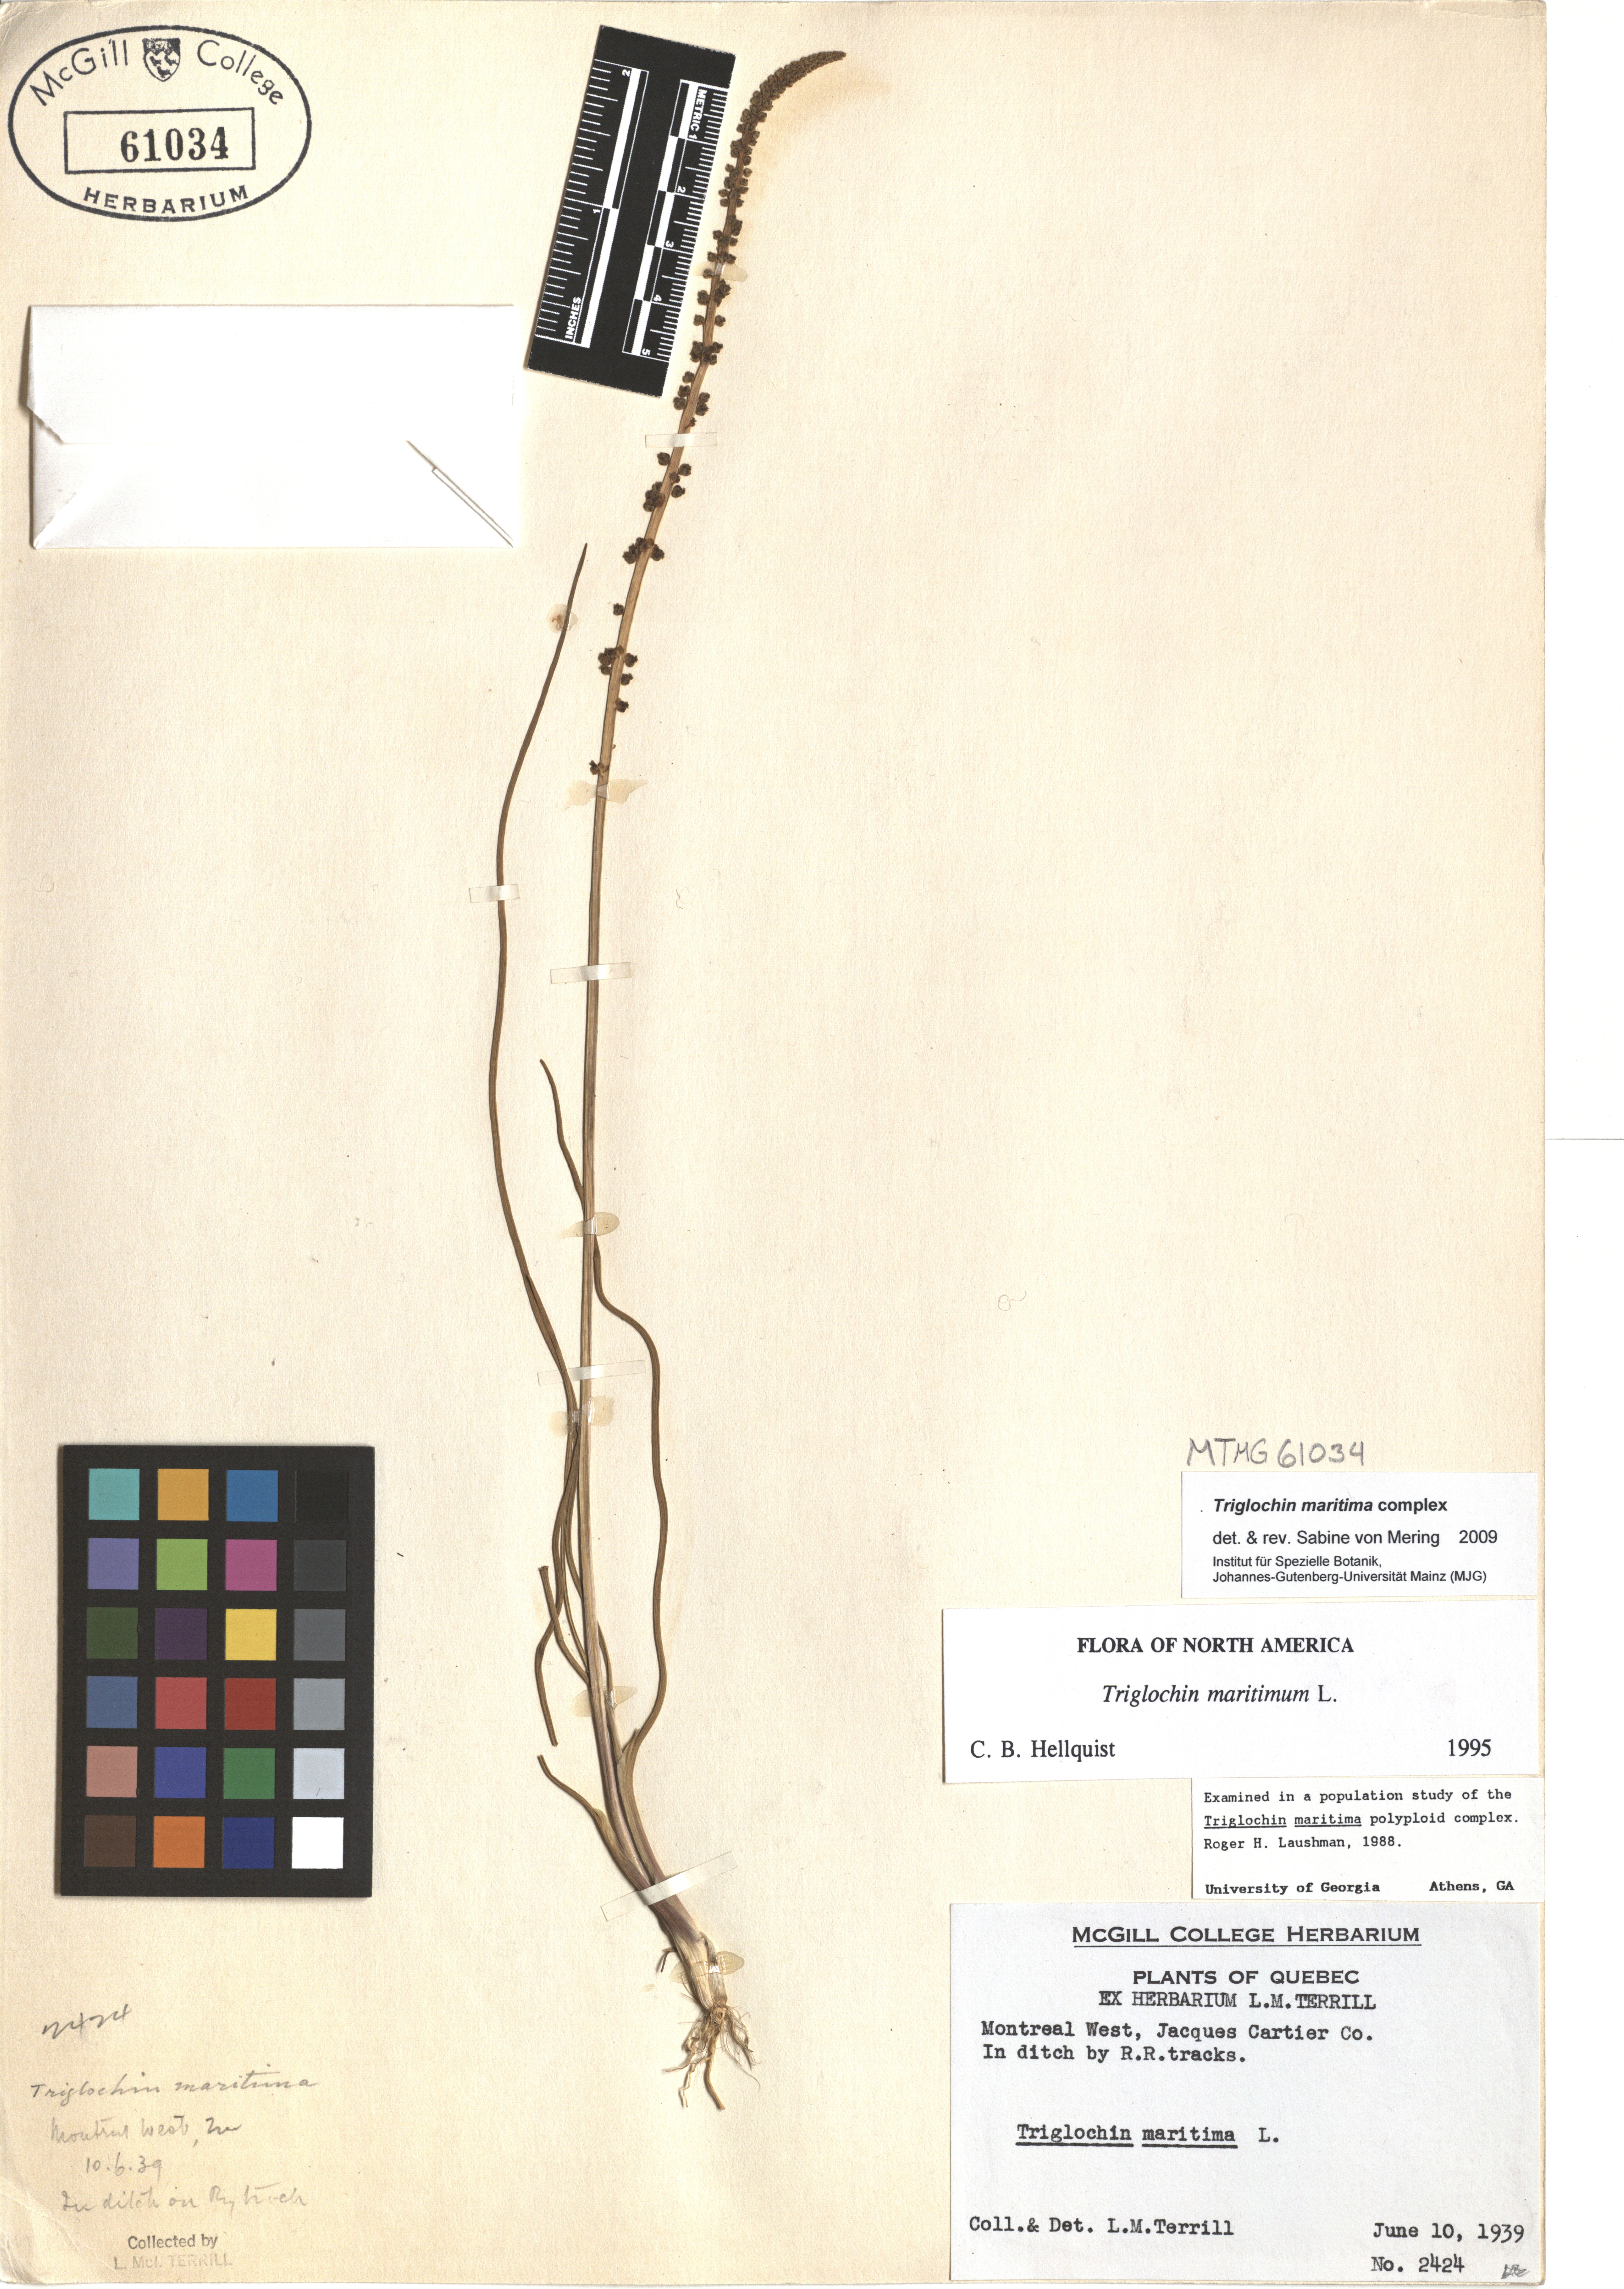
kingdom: Plantae
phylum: Tracheophyta
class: Liliopsida
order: Alismatales
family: Juncaginaceae
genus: Triglochin
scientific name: Triglochin maritima
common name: Sea arrowgrass
